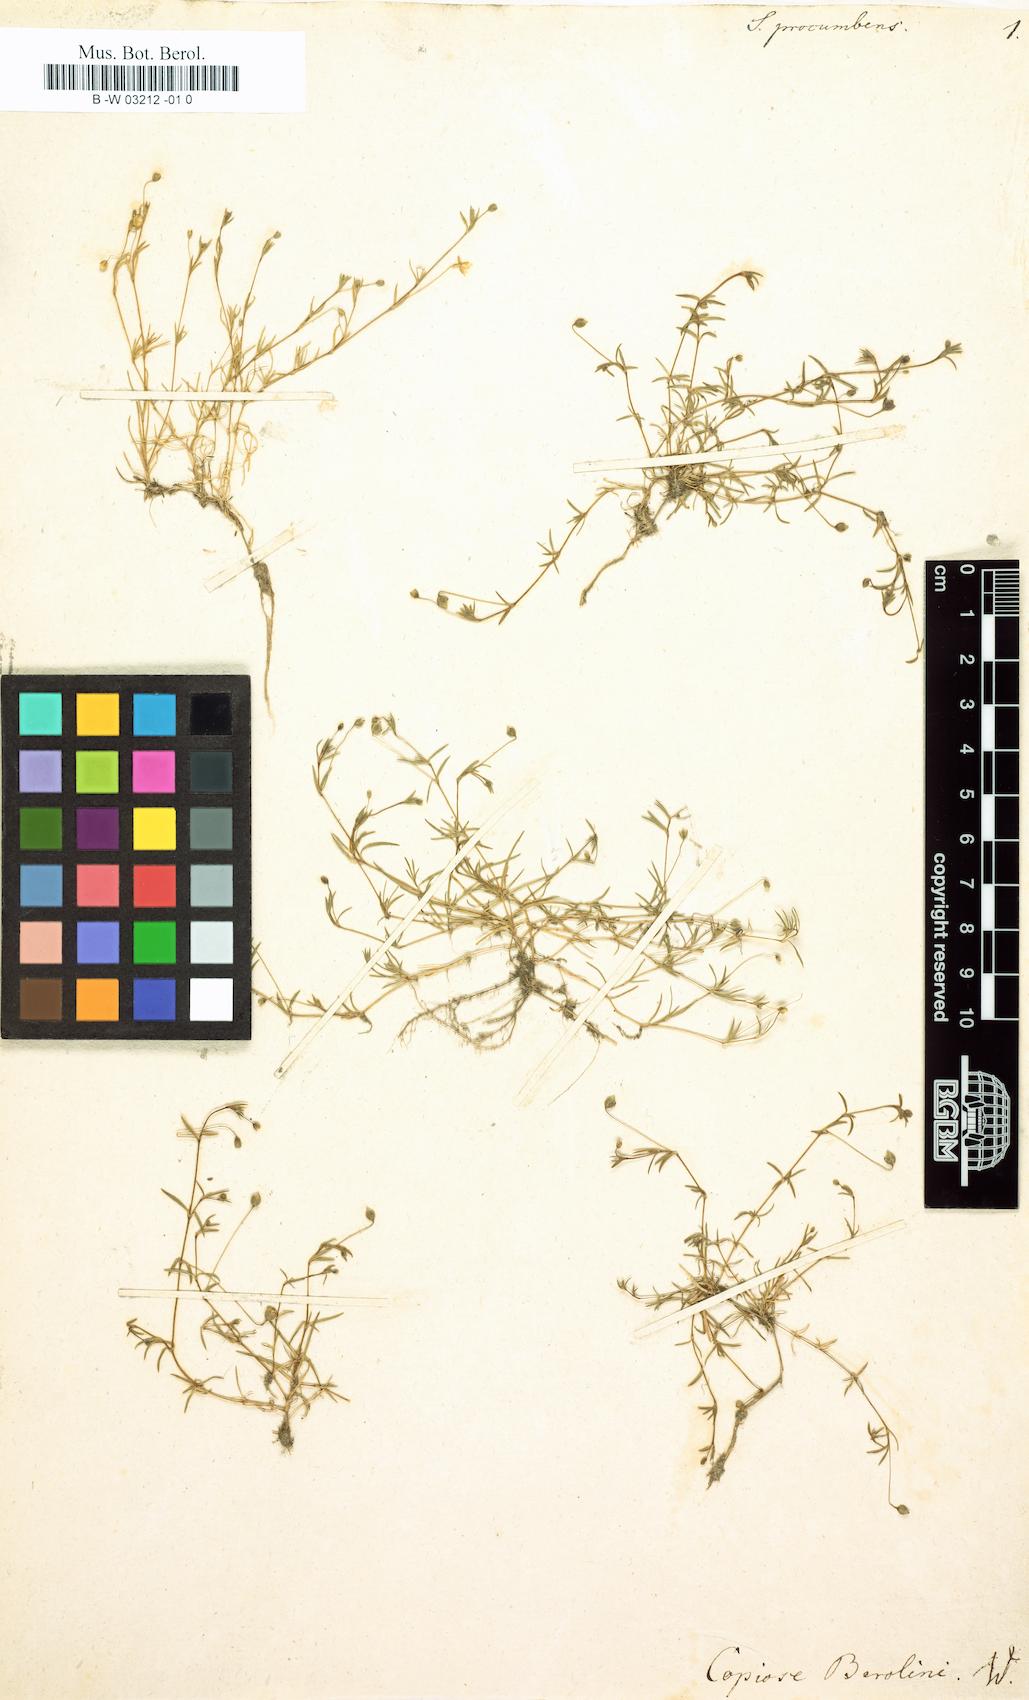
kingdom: Plantae
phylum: Tracheophyta
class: Magnoliopsida
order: Caryophyllales
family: Caryophyllaceae
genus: Sagina
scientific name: Sagina procumbens
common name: Procumbent pearlwort
